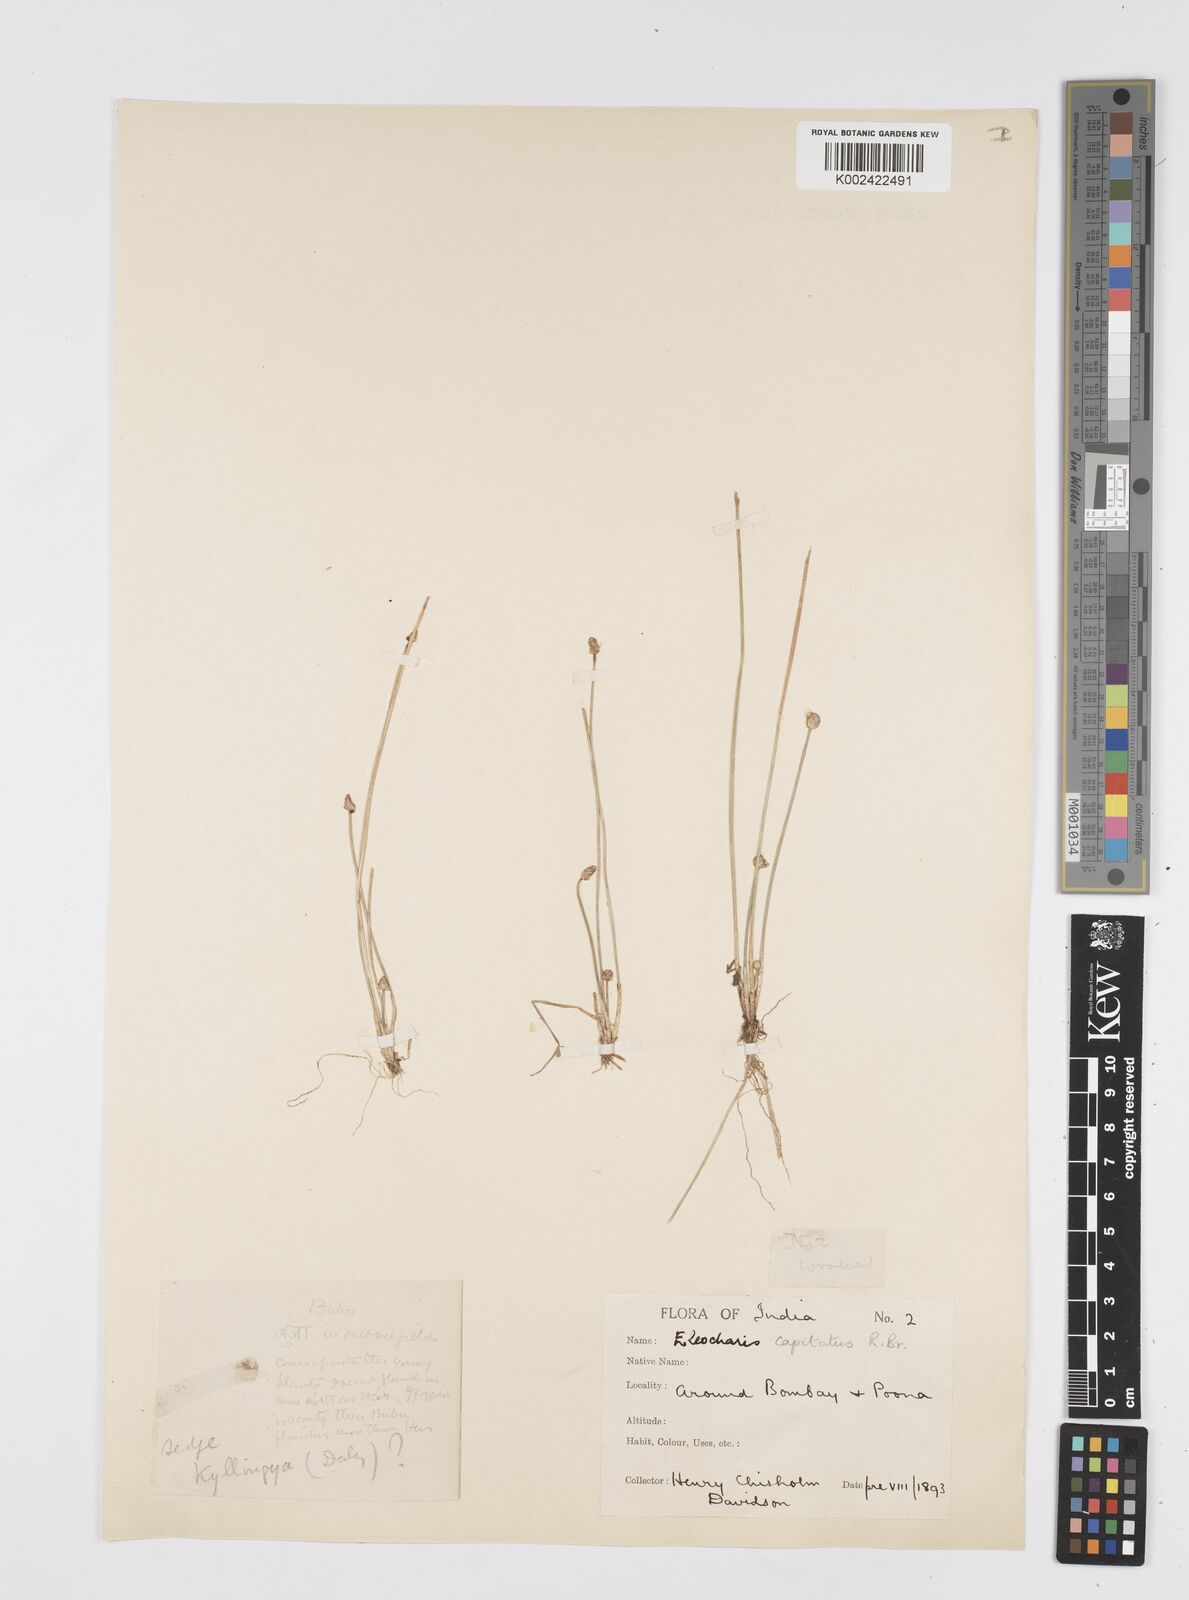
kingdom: Plantae
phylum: Tracheophyta
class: Liliopsida
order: Poales
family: Cyperaceae
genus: Eleocharis
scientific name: Eleocharis geniculata
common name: Canada spikesedge
